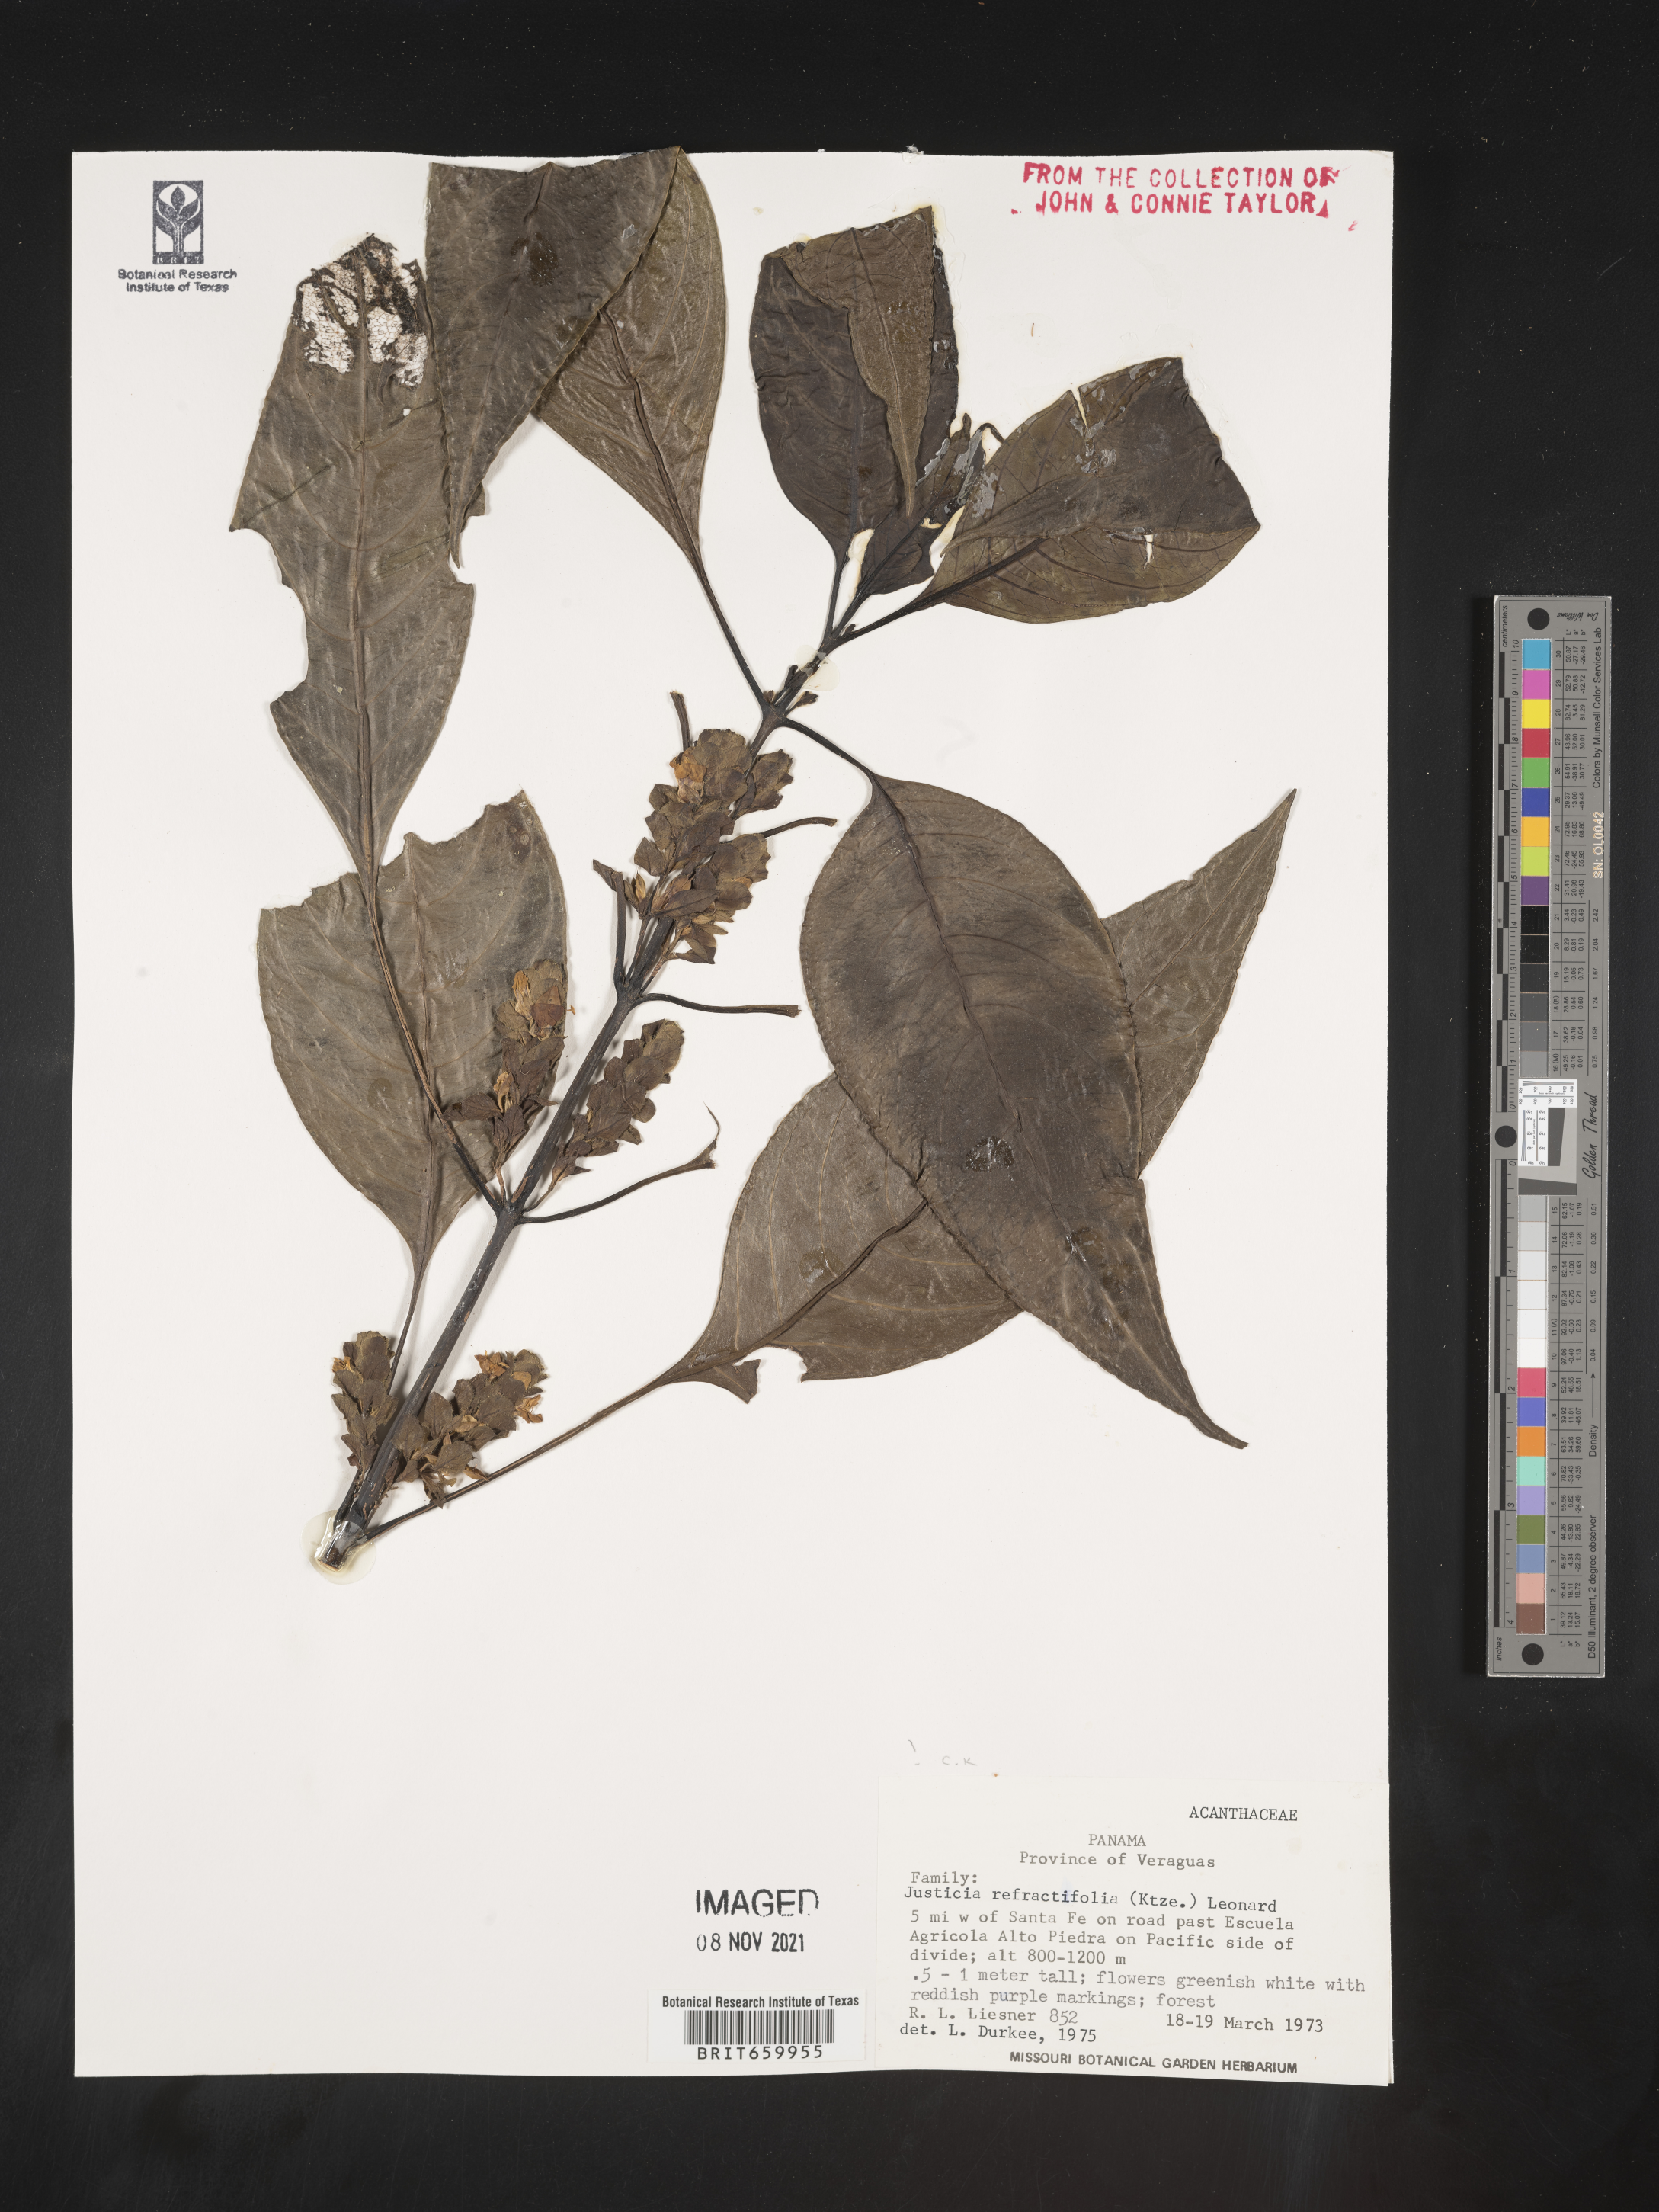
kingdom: Plantae
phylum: Tracheophyta
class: Magnoliopsida
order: Lamiales
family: Acanthaceae
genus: Justicia
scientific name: Justicia
